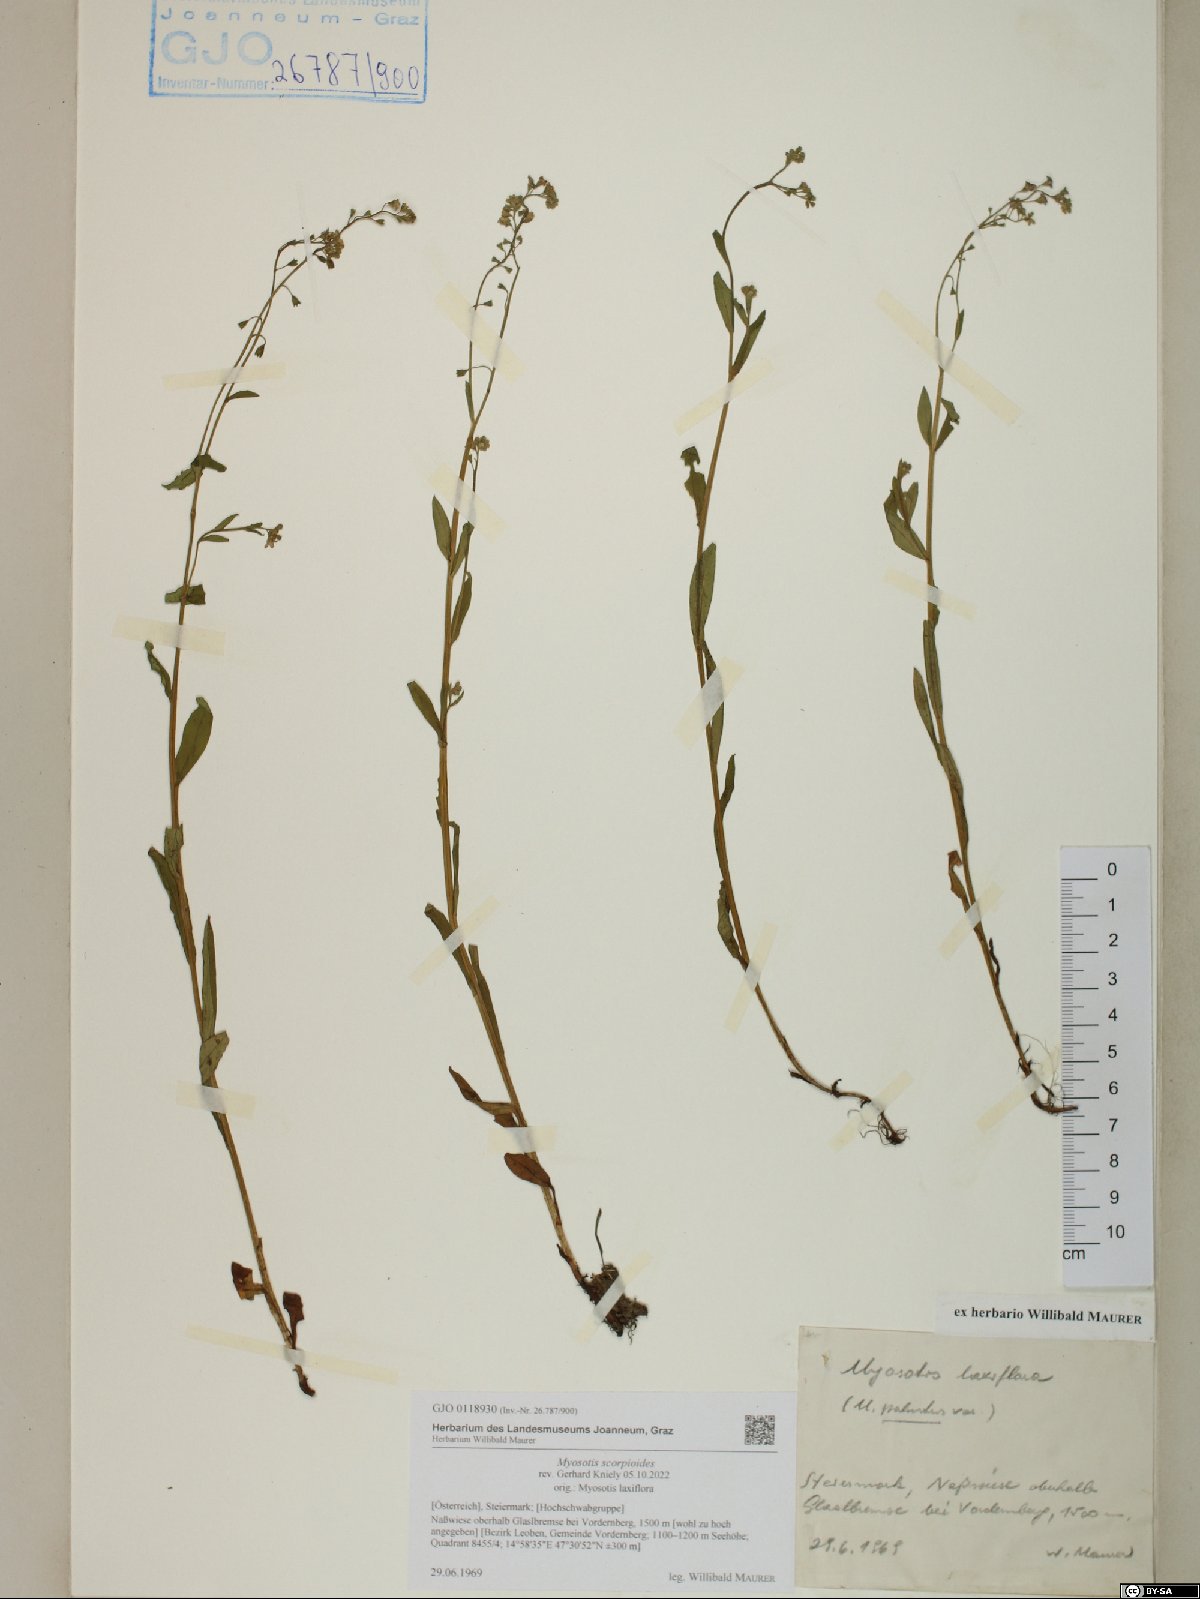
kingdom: Plantae
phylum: Tracheophyta
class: Magnoliopsida
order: Boraginales
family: Boraginaceae
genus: Myosotis
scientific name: Myosotis scorpioides
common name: Water forget-me-not
